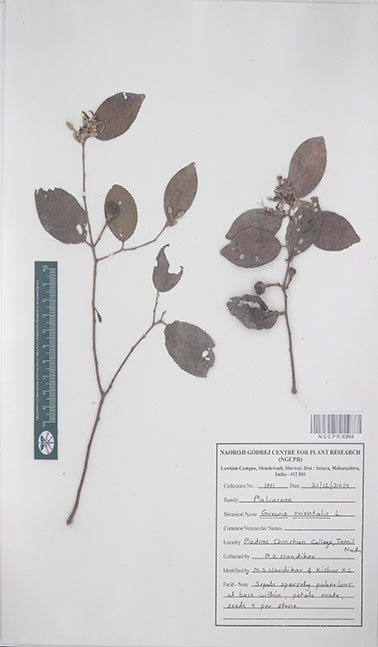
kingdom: Plantae
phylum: Tracheophyta
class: Magnoliopsida
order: Malvales
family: Malvaceae
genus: Grewia
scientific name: Grewia orientalis
